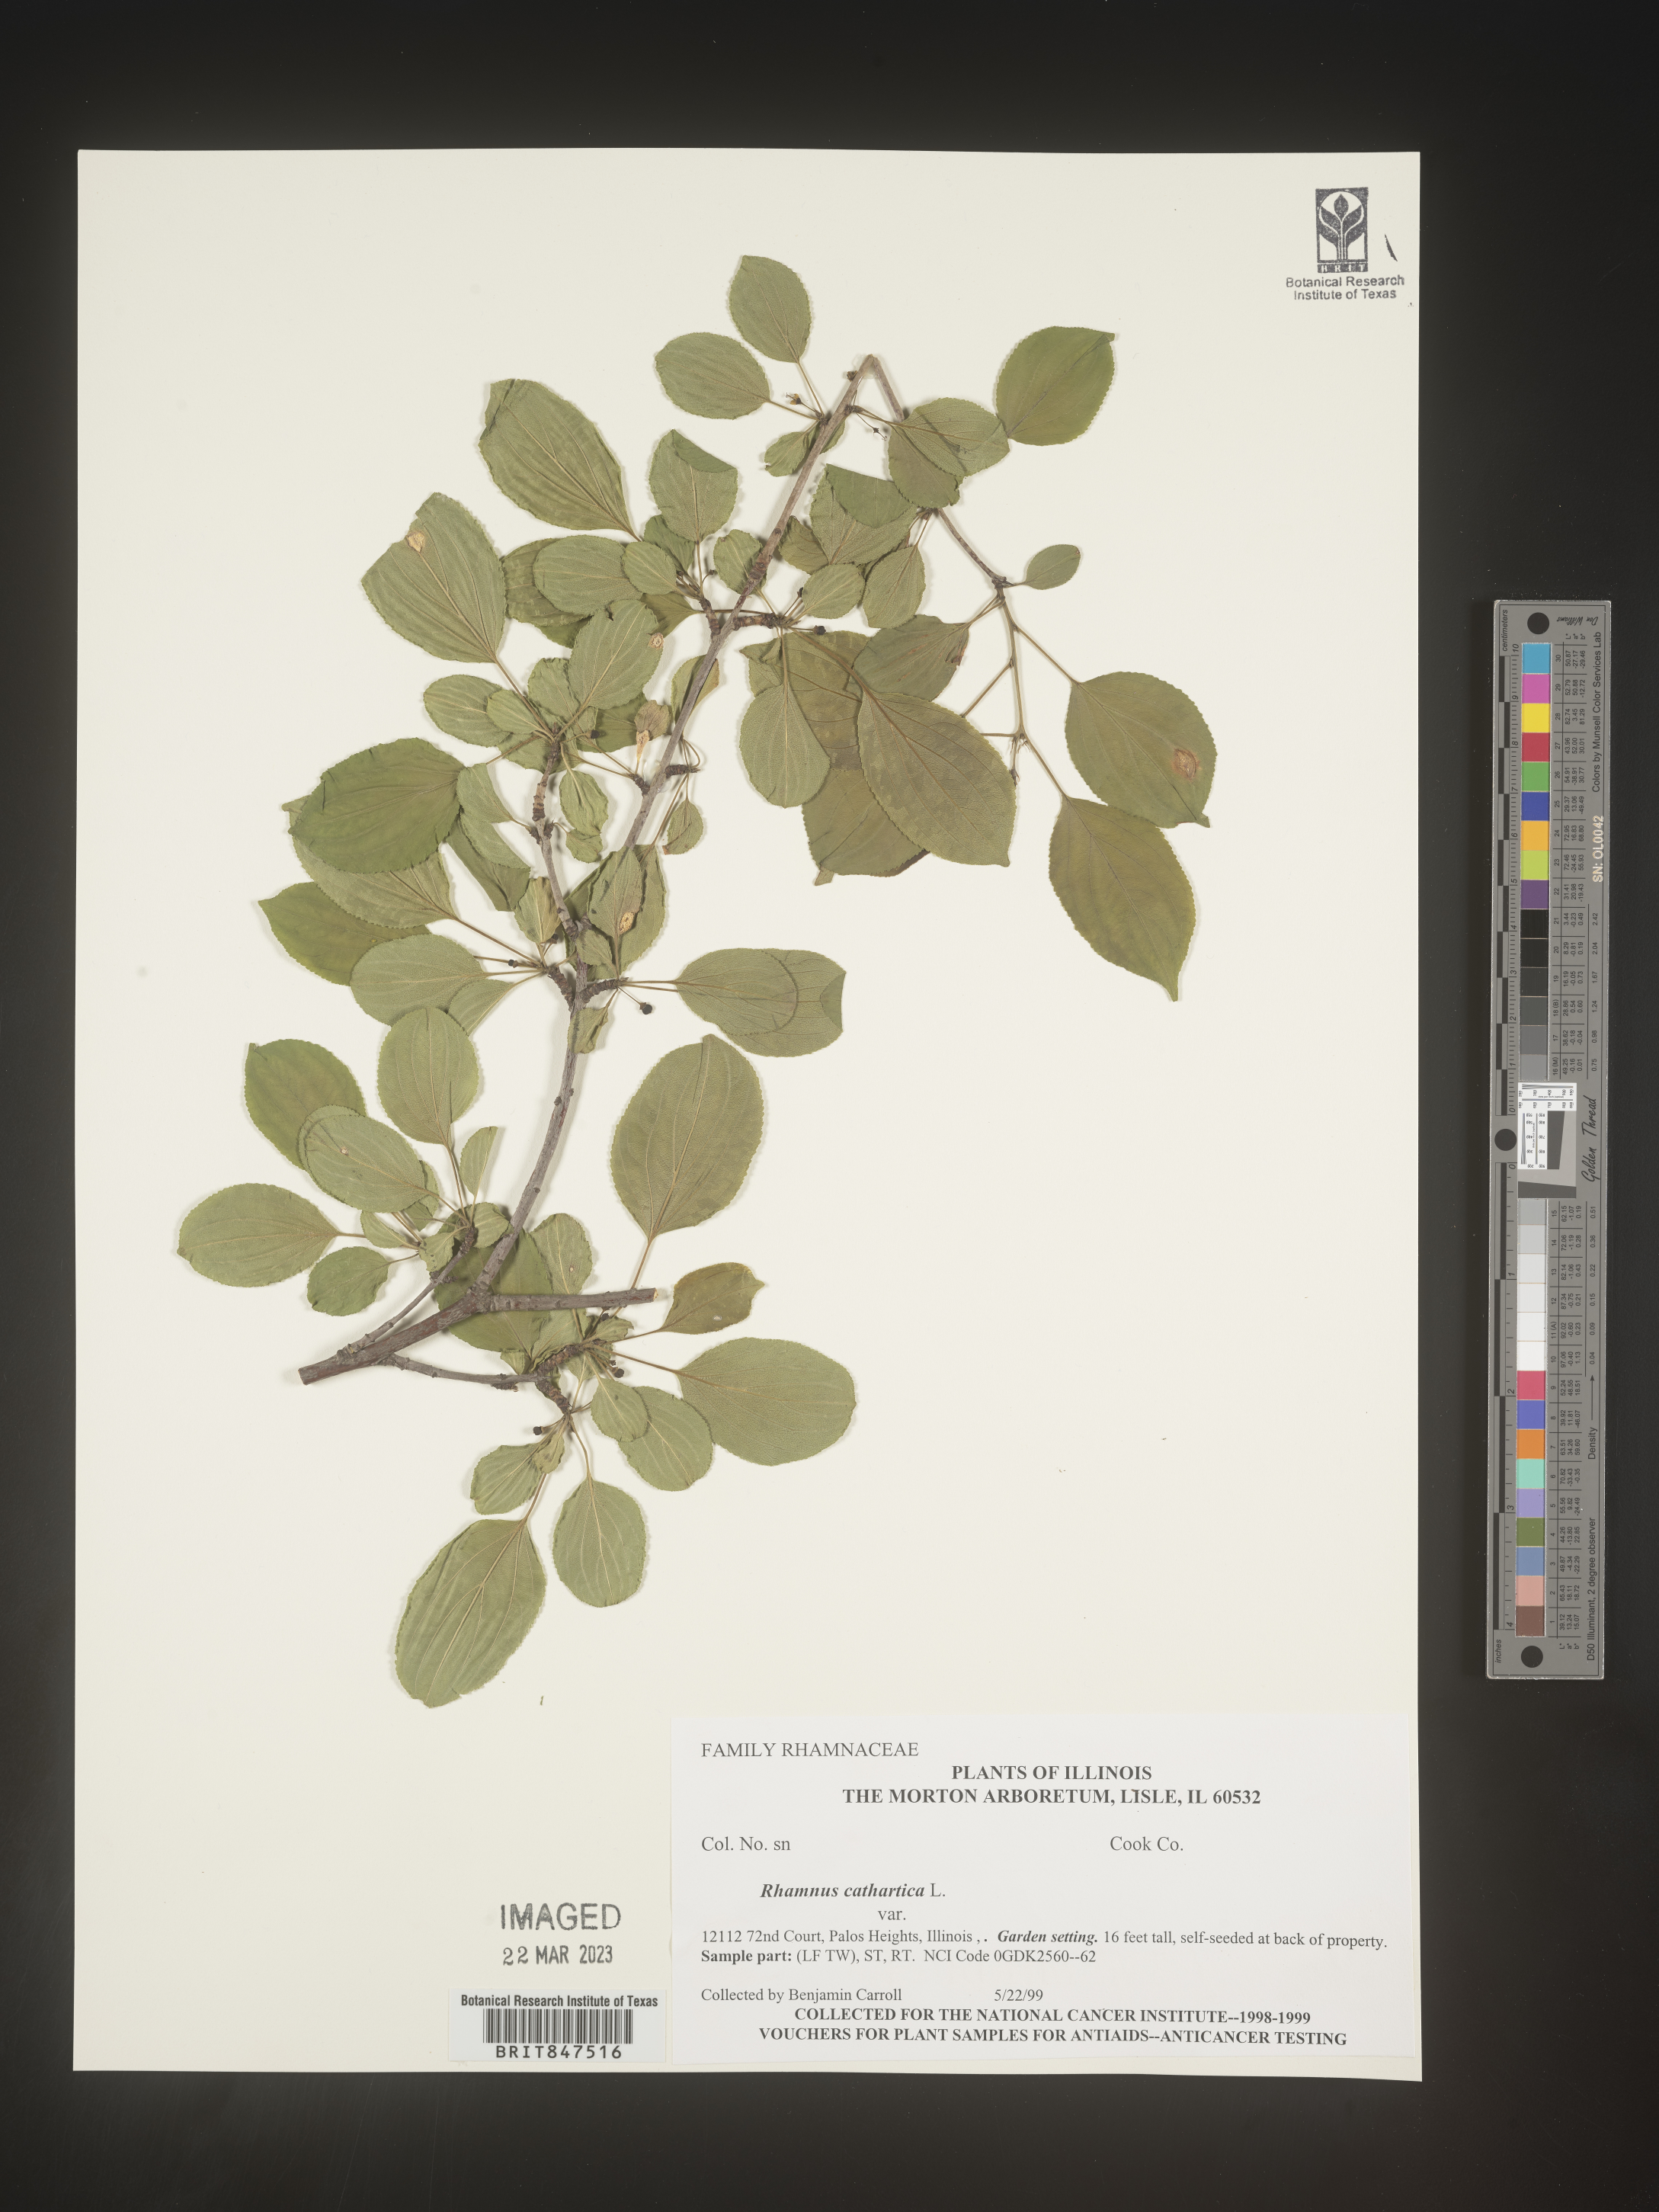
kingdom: Plantae
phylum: Tracheophyta
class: Magnoliopsida
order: Rosales
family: Rhamnaceae
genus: Rhamnus
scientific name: Rhamnus cathartica
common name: Common buckthorn
